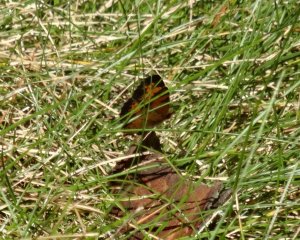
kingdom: Animalia
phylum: Arthropoda
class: Insecta
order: Lepidoptera
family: Nymphalidae
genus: Phyciodes
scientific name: Phyciodes tharos
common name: Northern Crescent
